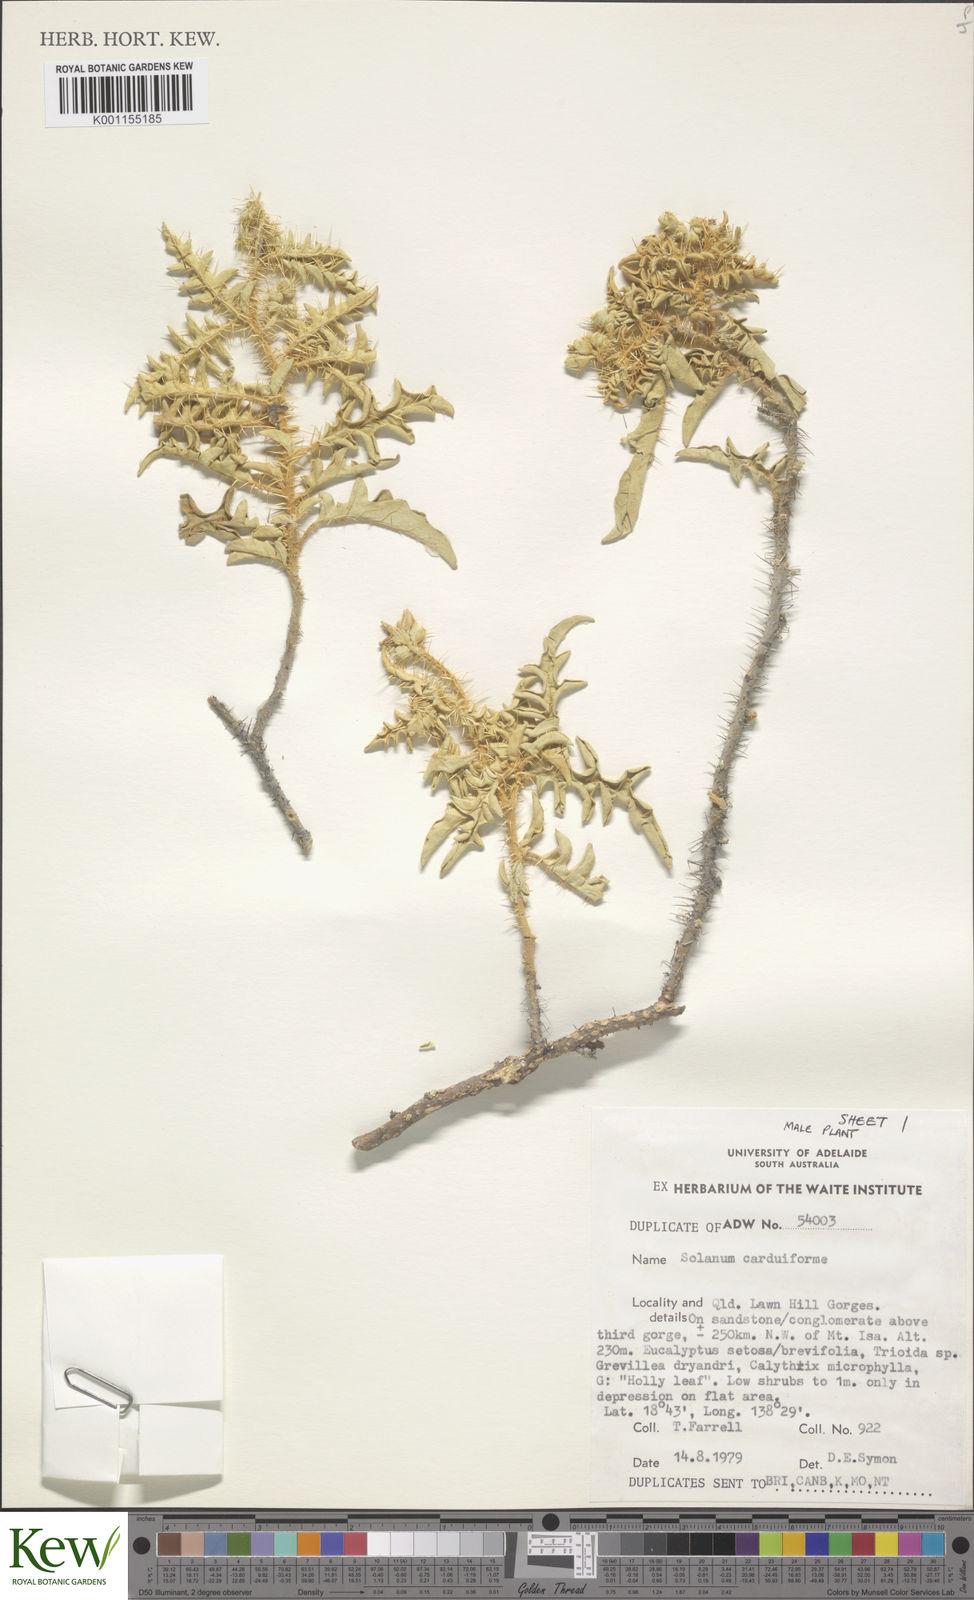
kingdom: Plantae
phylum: Tracheophyta
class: Magnoliopsida
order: Solanales
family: Solanaceae
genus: Solanum
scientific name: Solanum carduiforme
